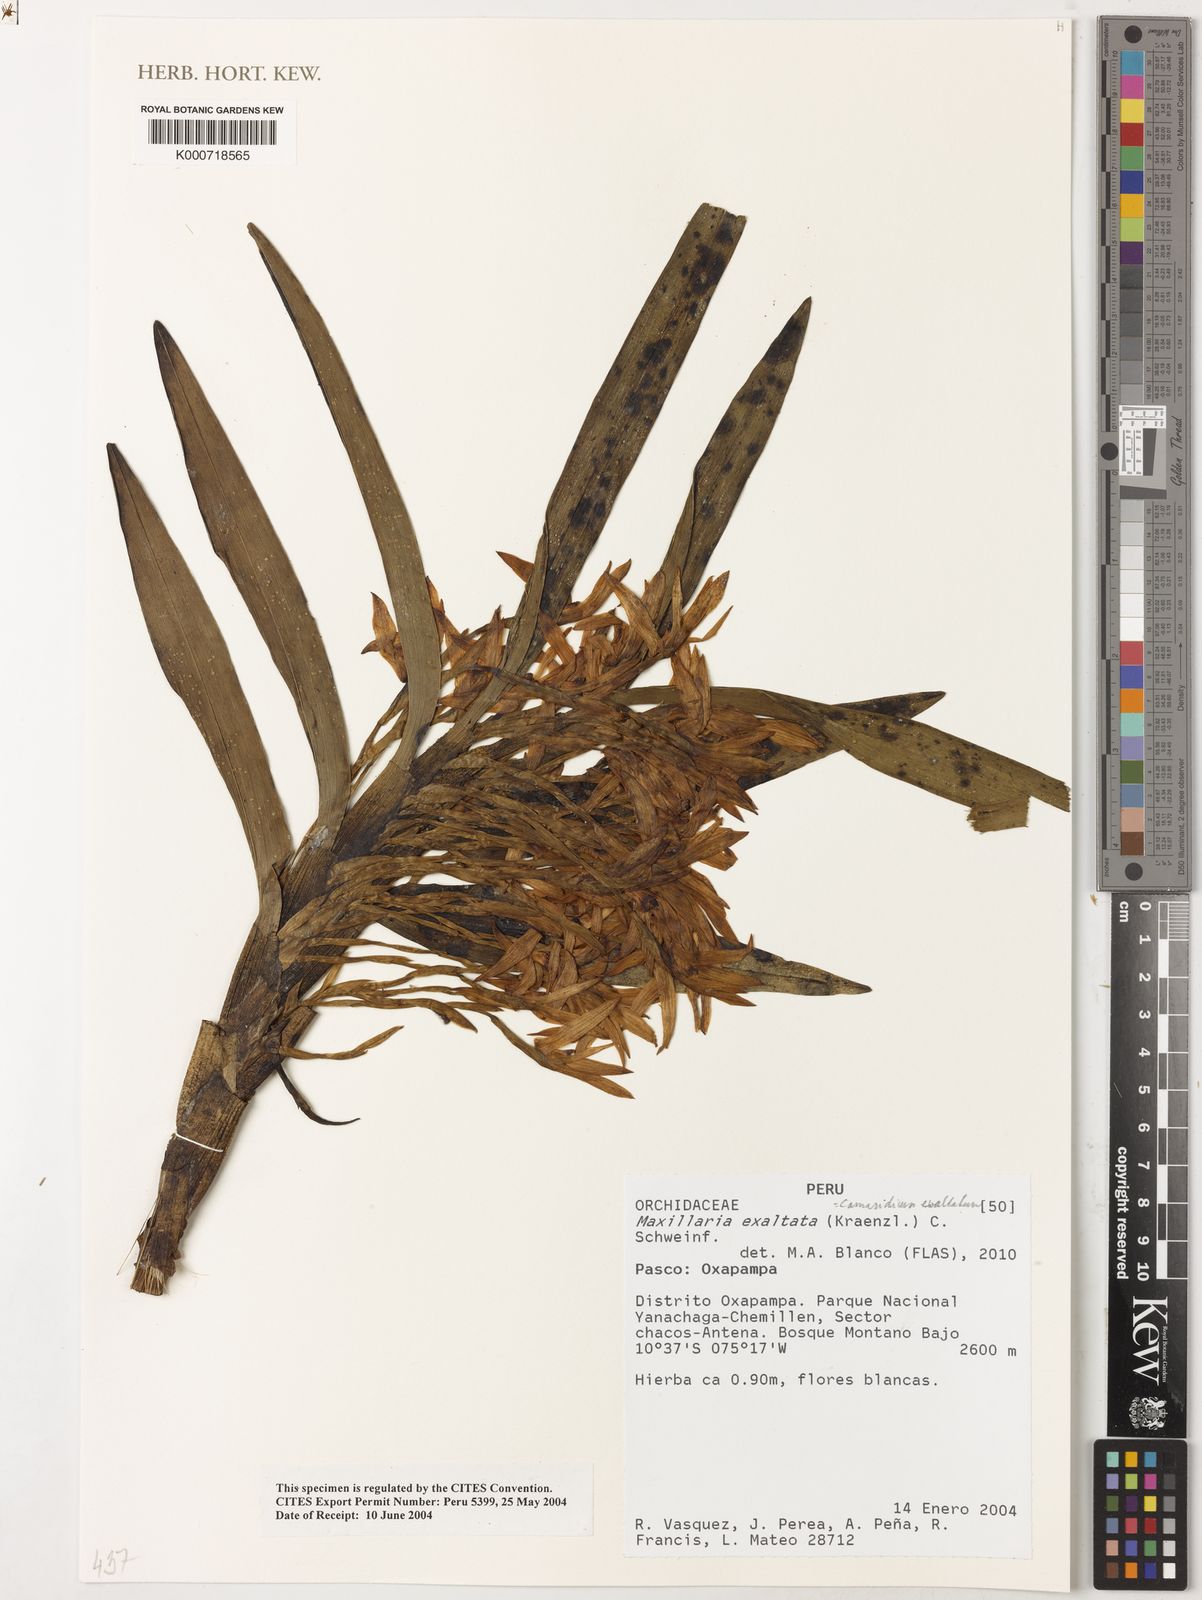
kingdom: Plantae
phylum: Tracheophyta
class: Liliopsida
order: Asparagales
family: Orchidaceae
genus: Maxillaria
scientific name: Maxillaria exaltata
